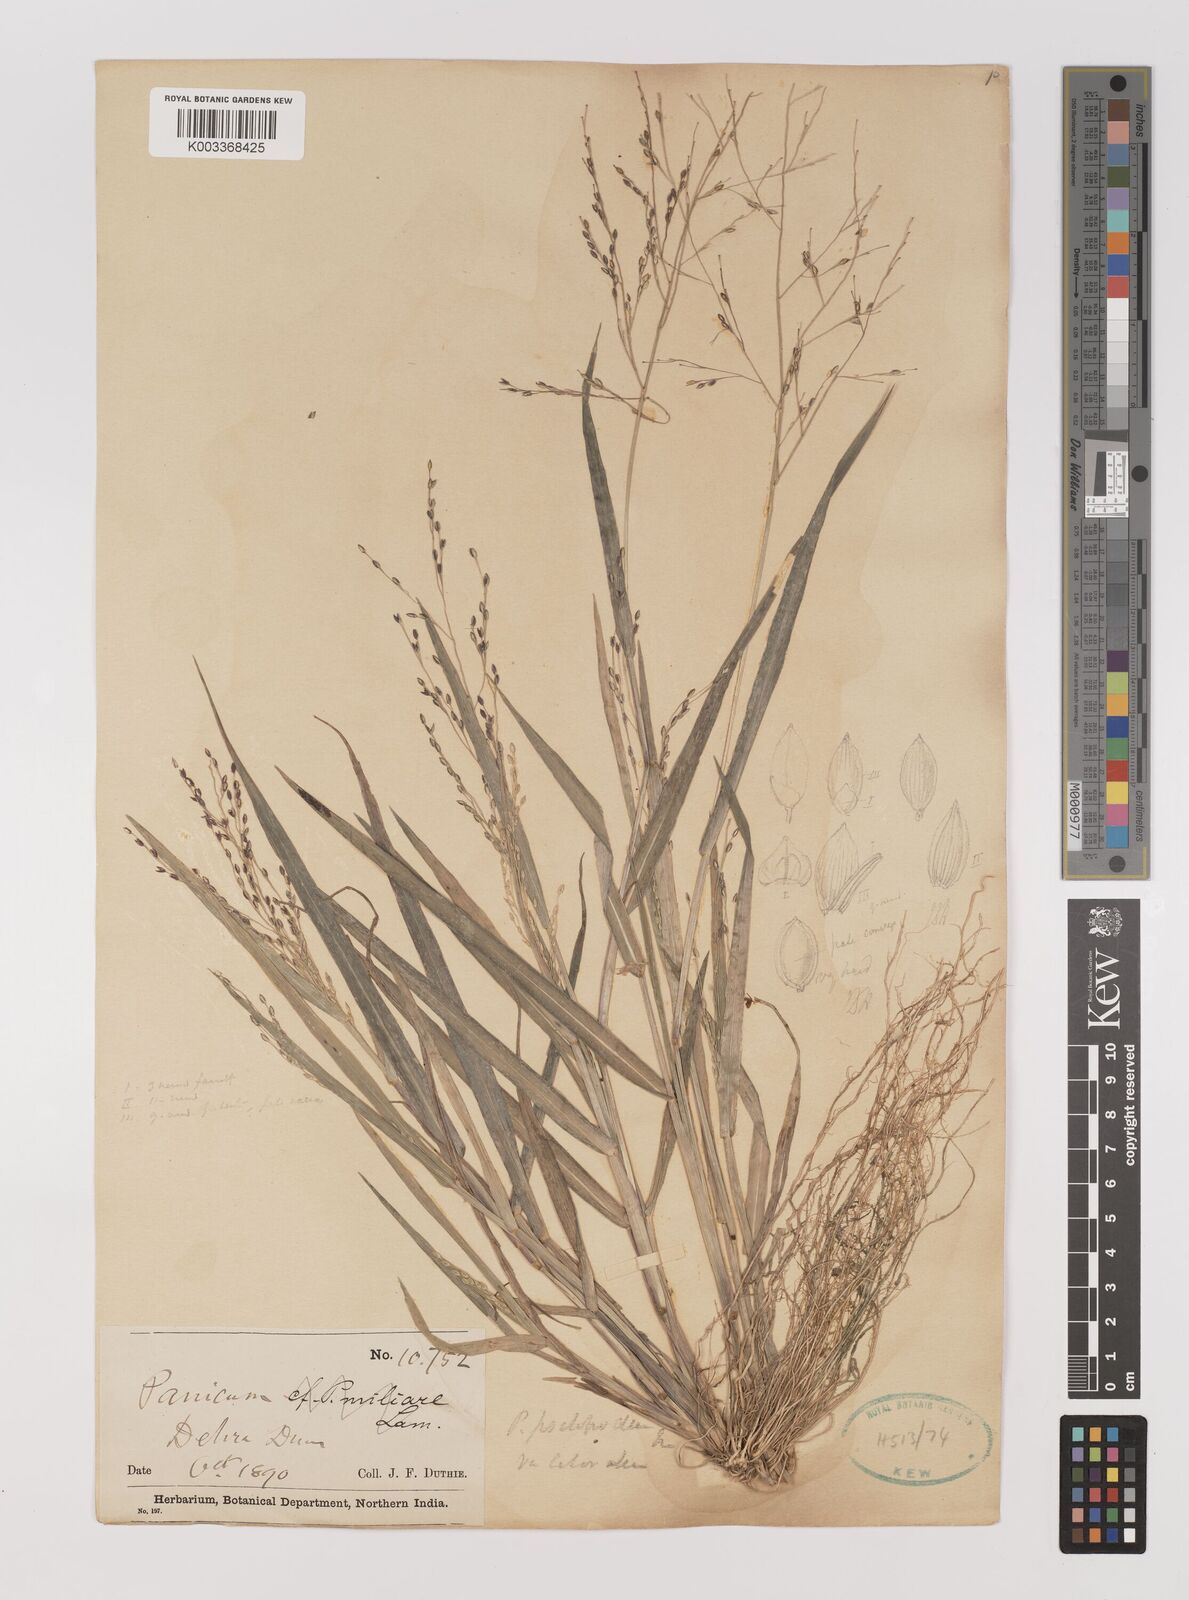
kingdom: Plantae
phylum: Tracheophyta
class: Liliopsida
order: Poales
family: Poaceae
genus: Panicum
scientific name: Panicum sumatrense
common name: Little millet
